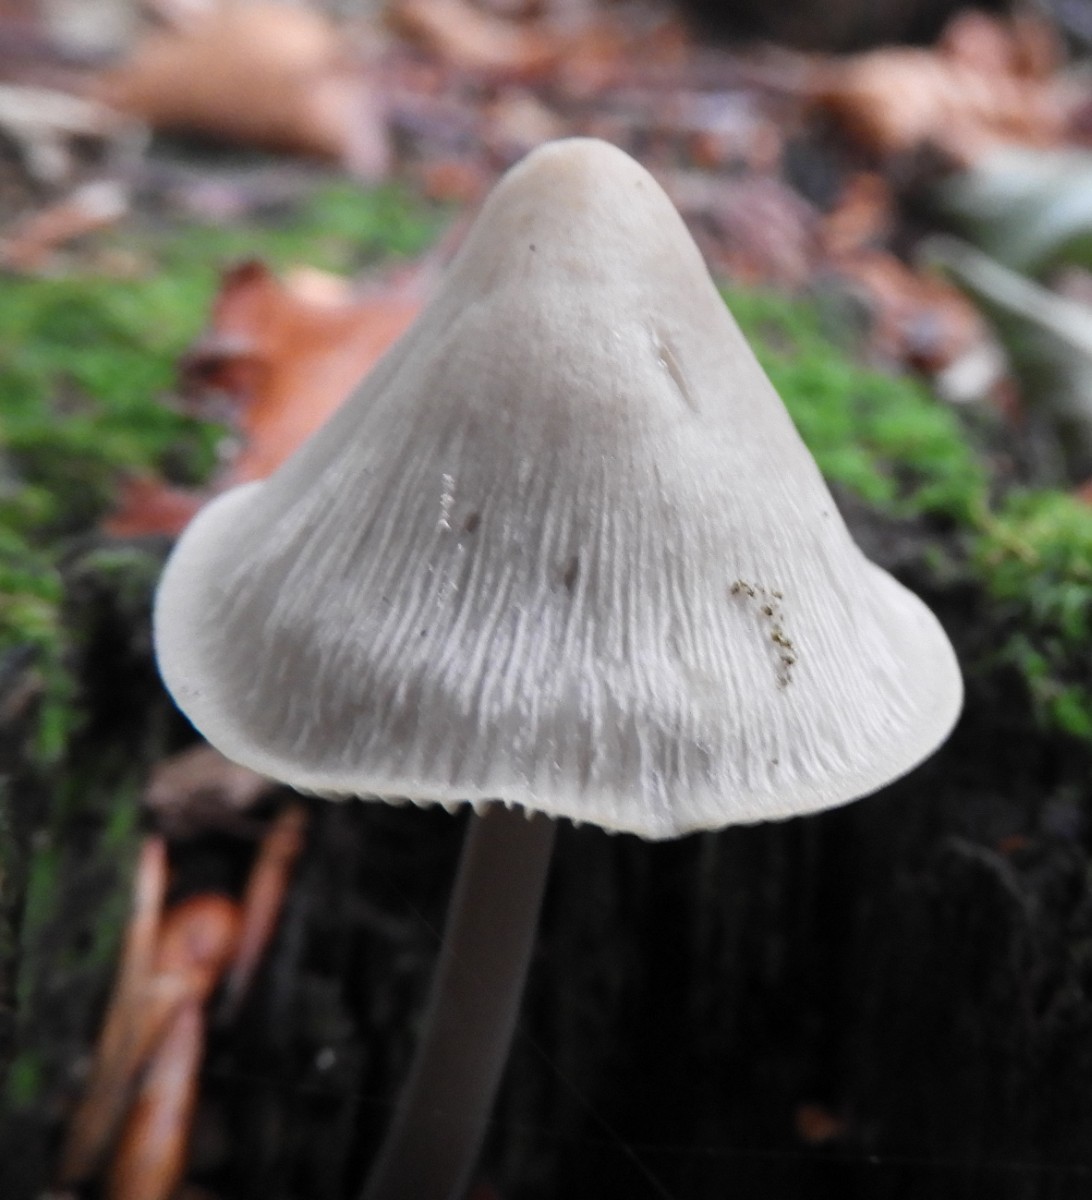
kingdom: Fungi
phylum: Basidiomycota
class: Agaricomycetes
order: Agaricales
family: Mycenaceae
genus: Mycena
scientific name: Mycena galericulata
